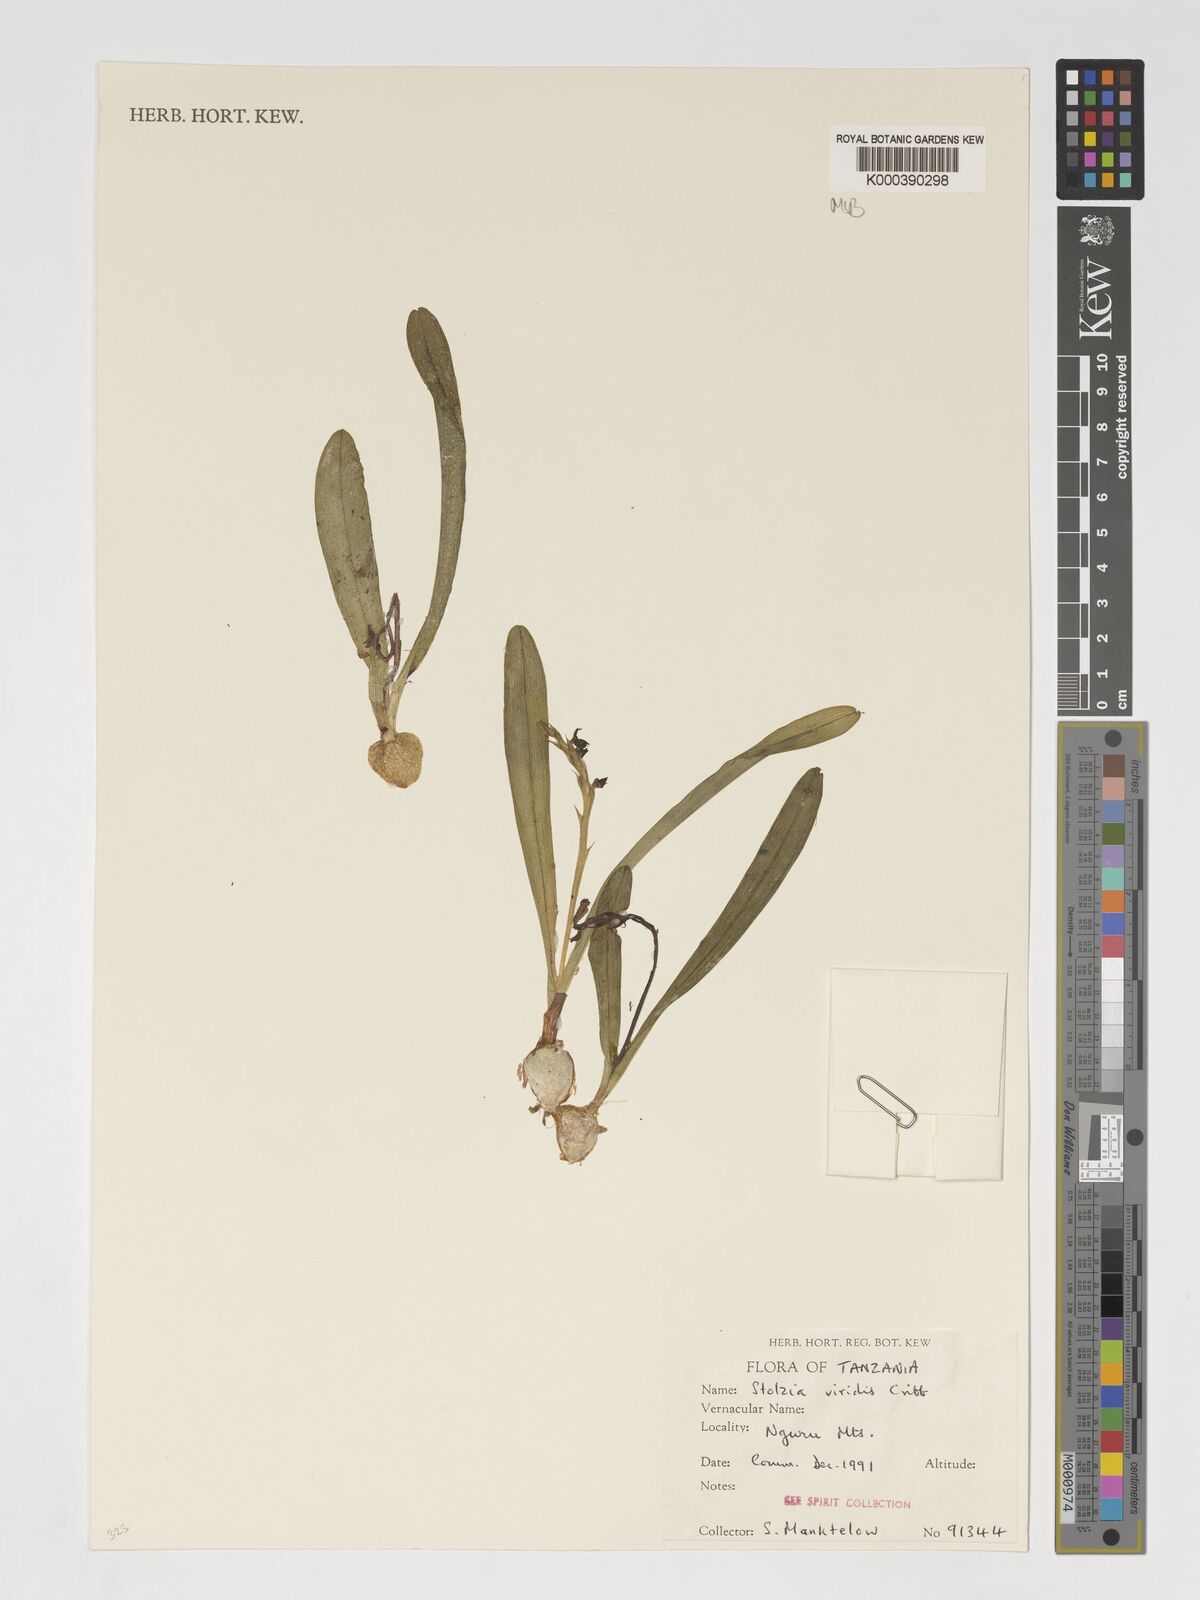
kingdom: Plantae
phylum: Tracheophyta
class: Liliopsida
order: Asparagales
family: Orchidaceae
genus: Porpax
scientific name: Porpax viridis
